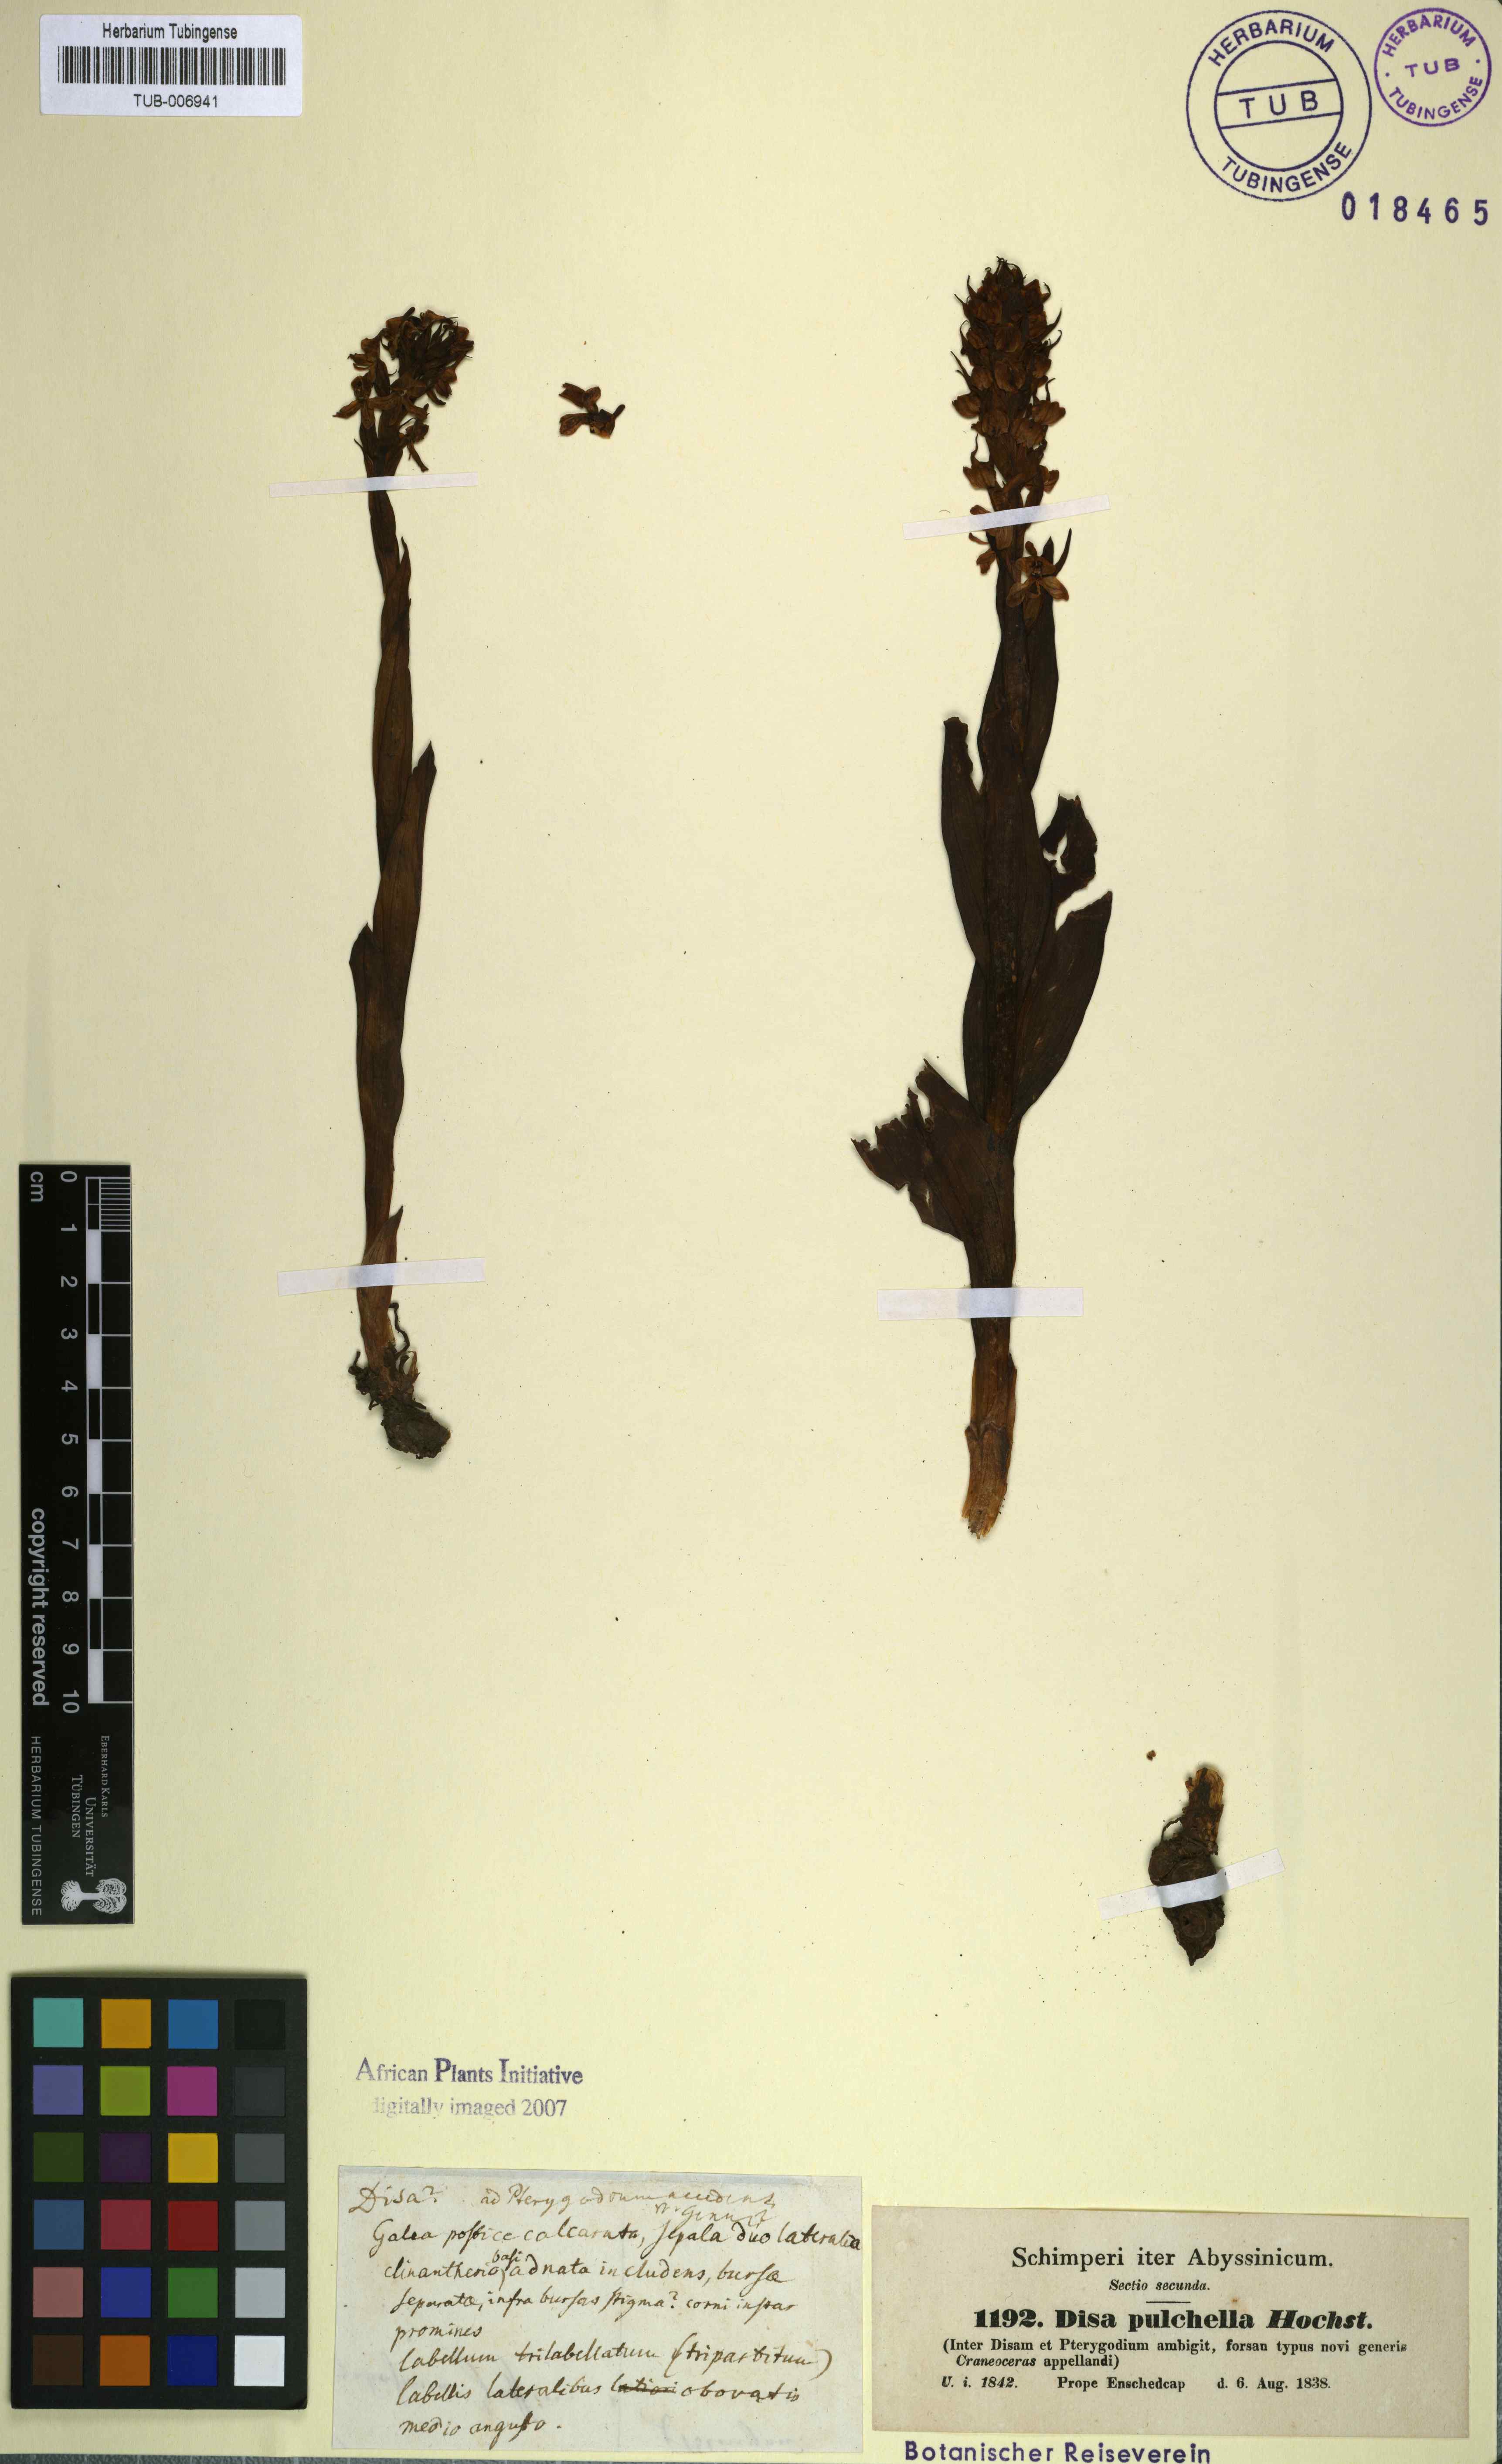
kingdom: Plantae
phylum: Tracheophyta
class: Liliopsida
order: Asparagales
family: Orchidaceae
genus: Disa
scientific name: Disa pulchella
